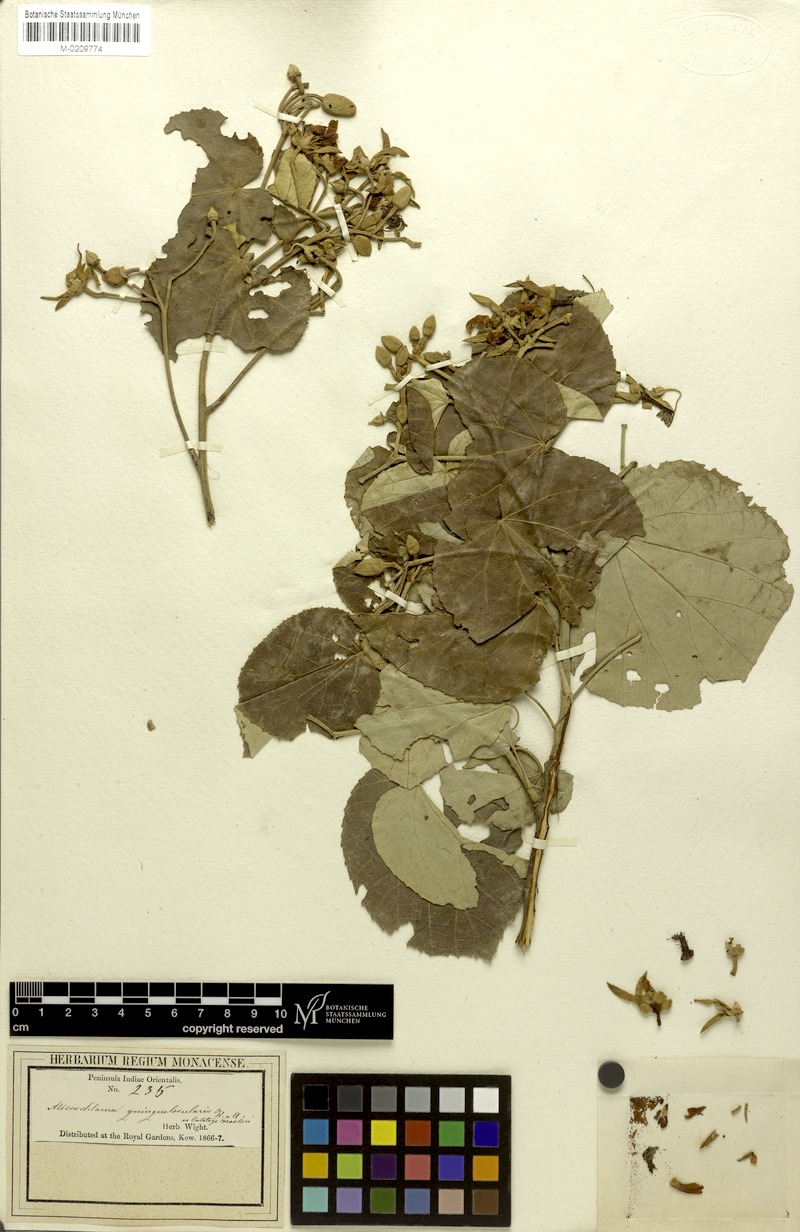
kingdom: Plantae
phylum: Tracheophyta
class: Magnoliopsida
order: Malvales
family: Malvaceae
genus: Eriolaena
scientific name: Eriolaena quinquelocularis
